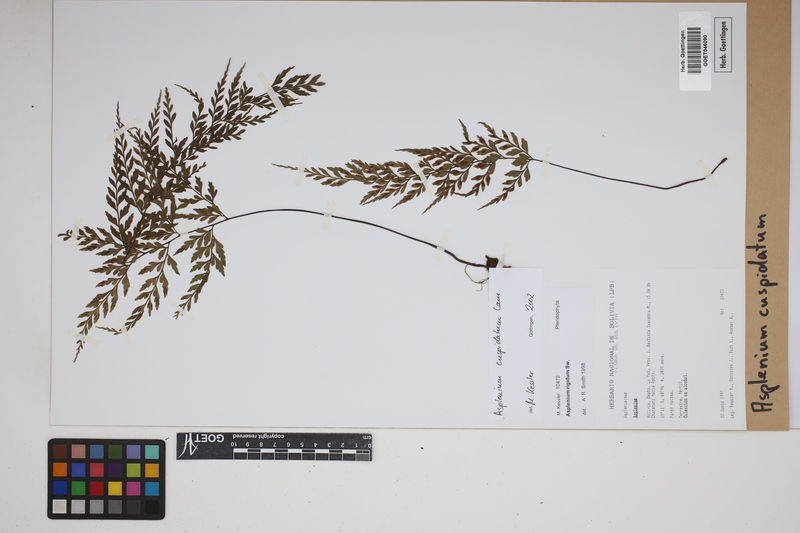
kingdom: Plantae
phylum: Tracheophyta
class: Polypodiopsida
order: Polypodiales
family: Aspleniaceae
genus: Asplenium
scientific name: Asplenium cuspidatum
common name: Eared spleenwort
